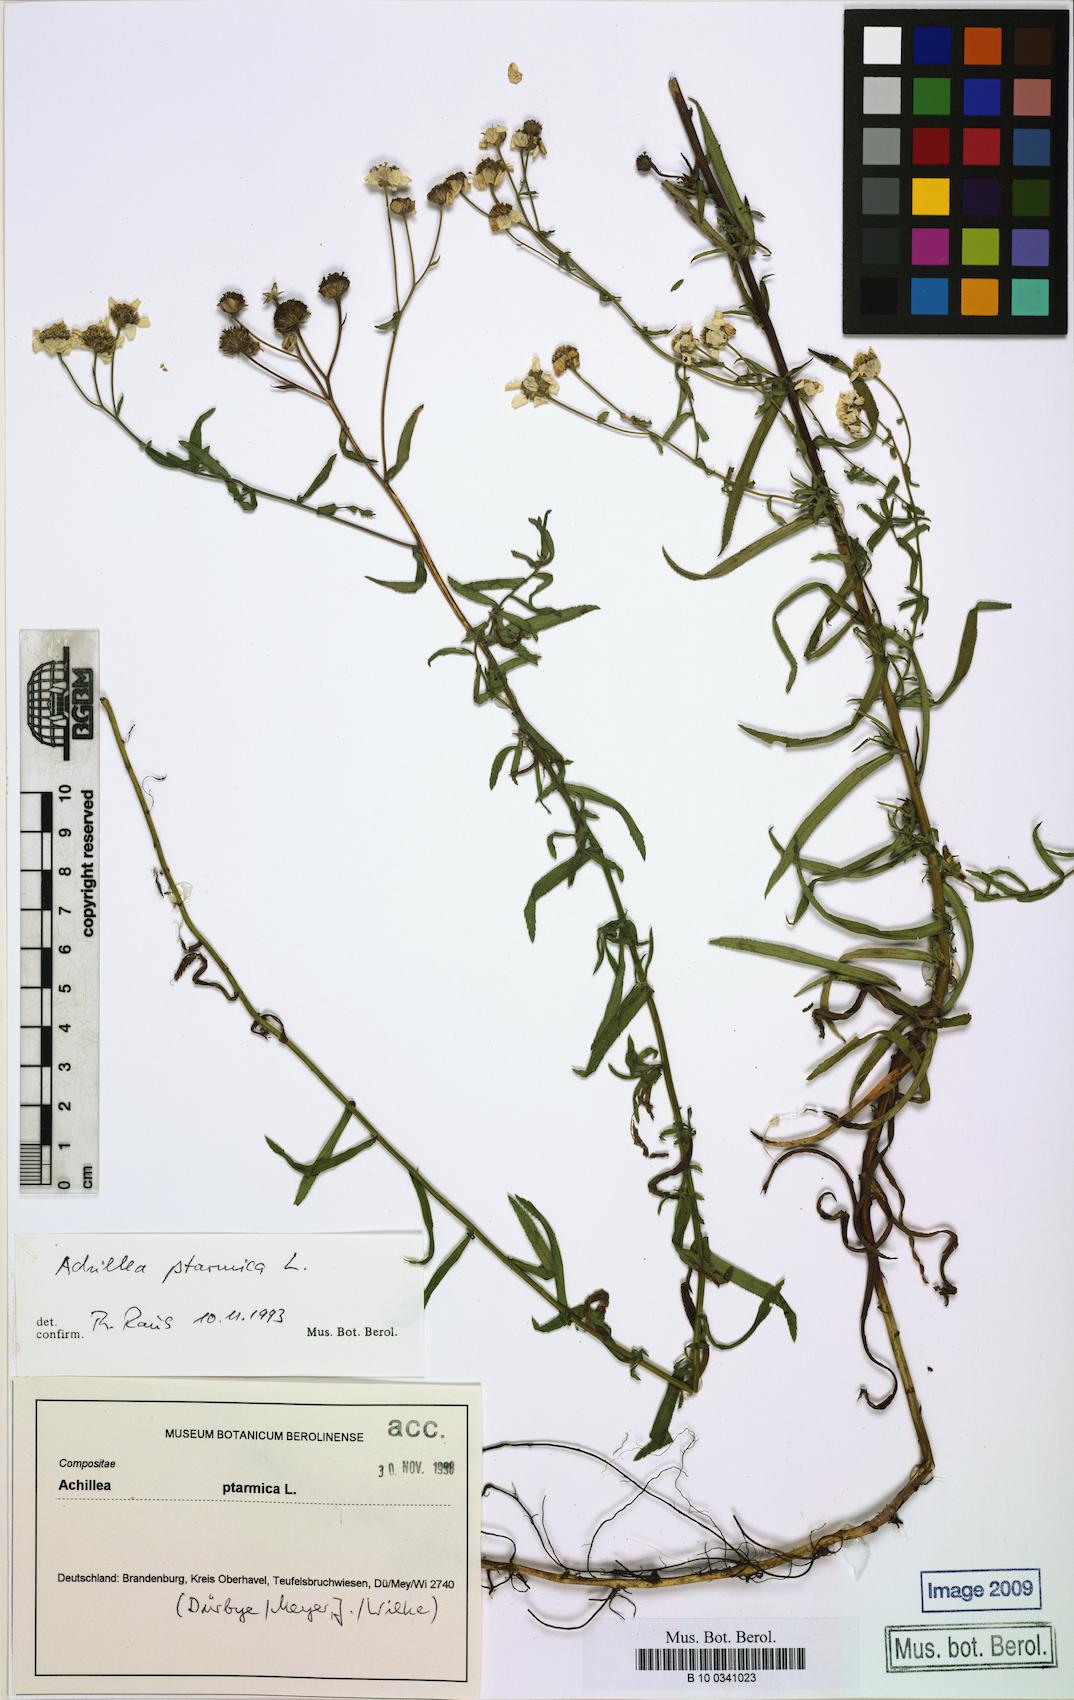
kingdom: Plantae
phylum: Tracheophyta
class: Magnoliopsida
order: Asterales
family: Asteraceae
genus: Achillea
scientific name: Achillea ptarmica
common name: Sneezeweed
